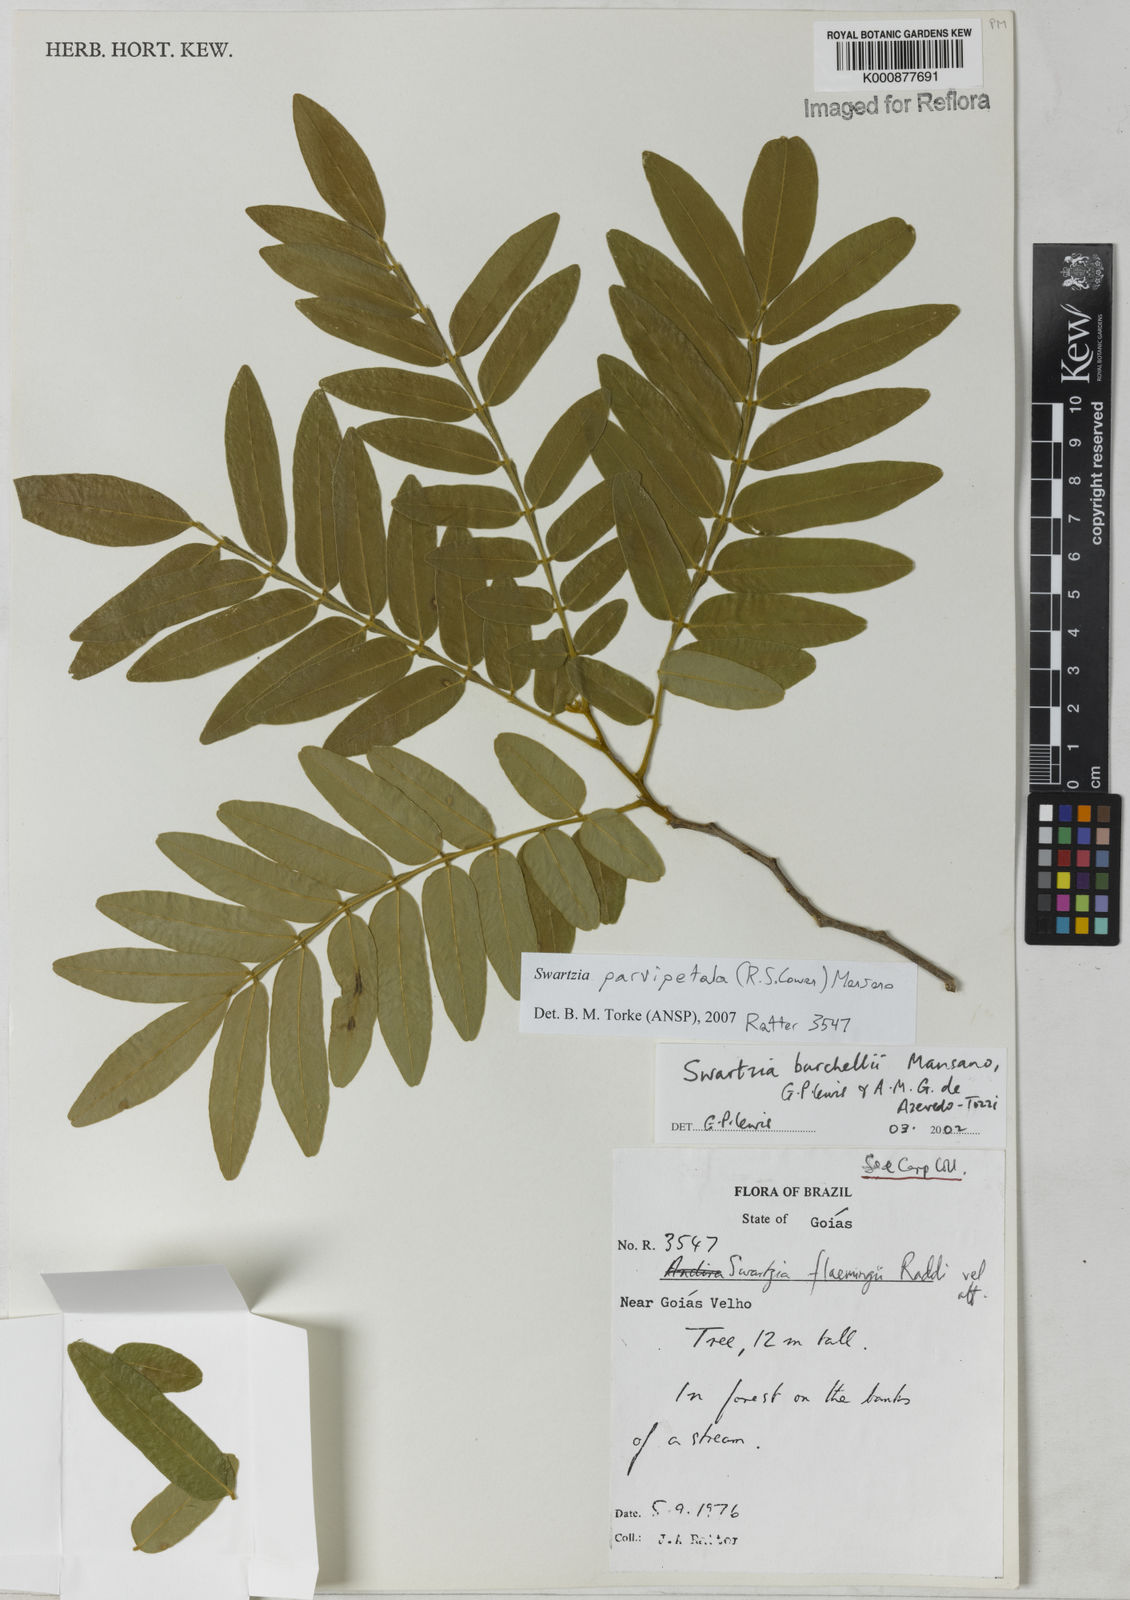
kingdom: Plantae
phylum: Tracheophyta
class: Magnoliopsida
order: Fabales
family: Fabaceae
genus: Swartzia
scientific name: Swartzia parvipetala
